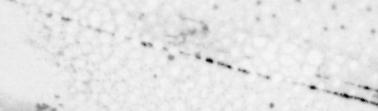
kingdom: Animalia
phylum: Chordata
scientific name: Chordata
